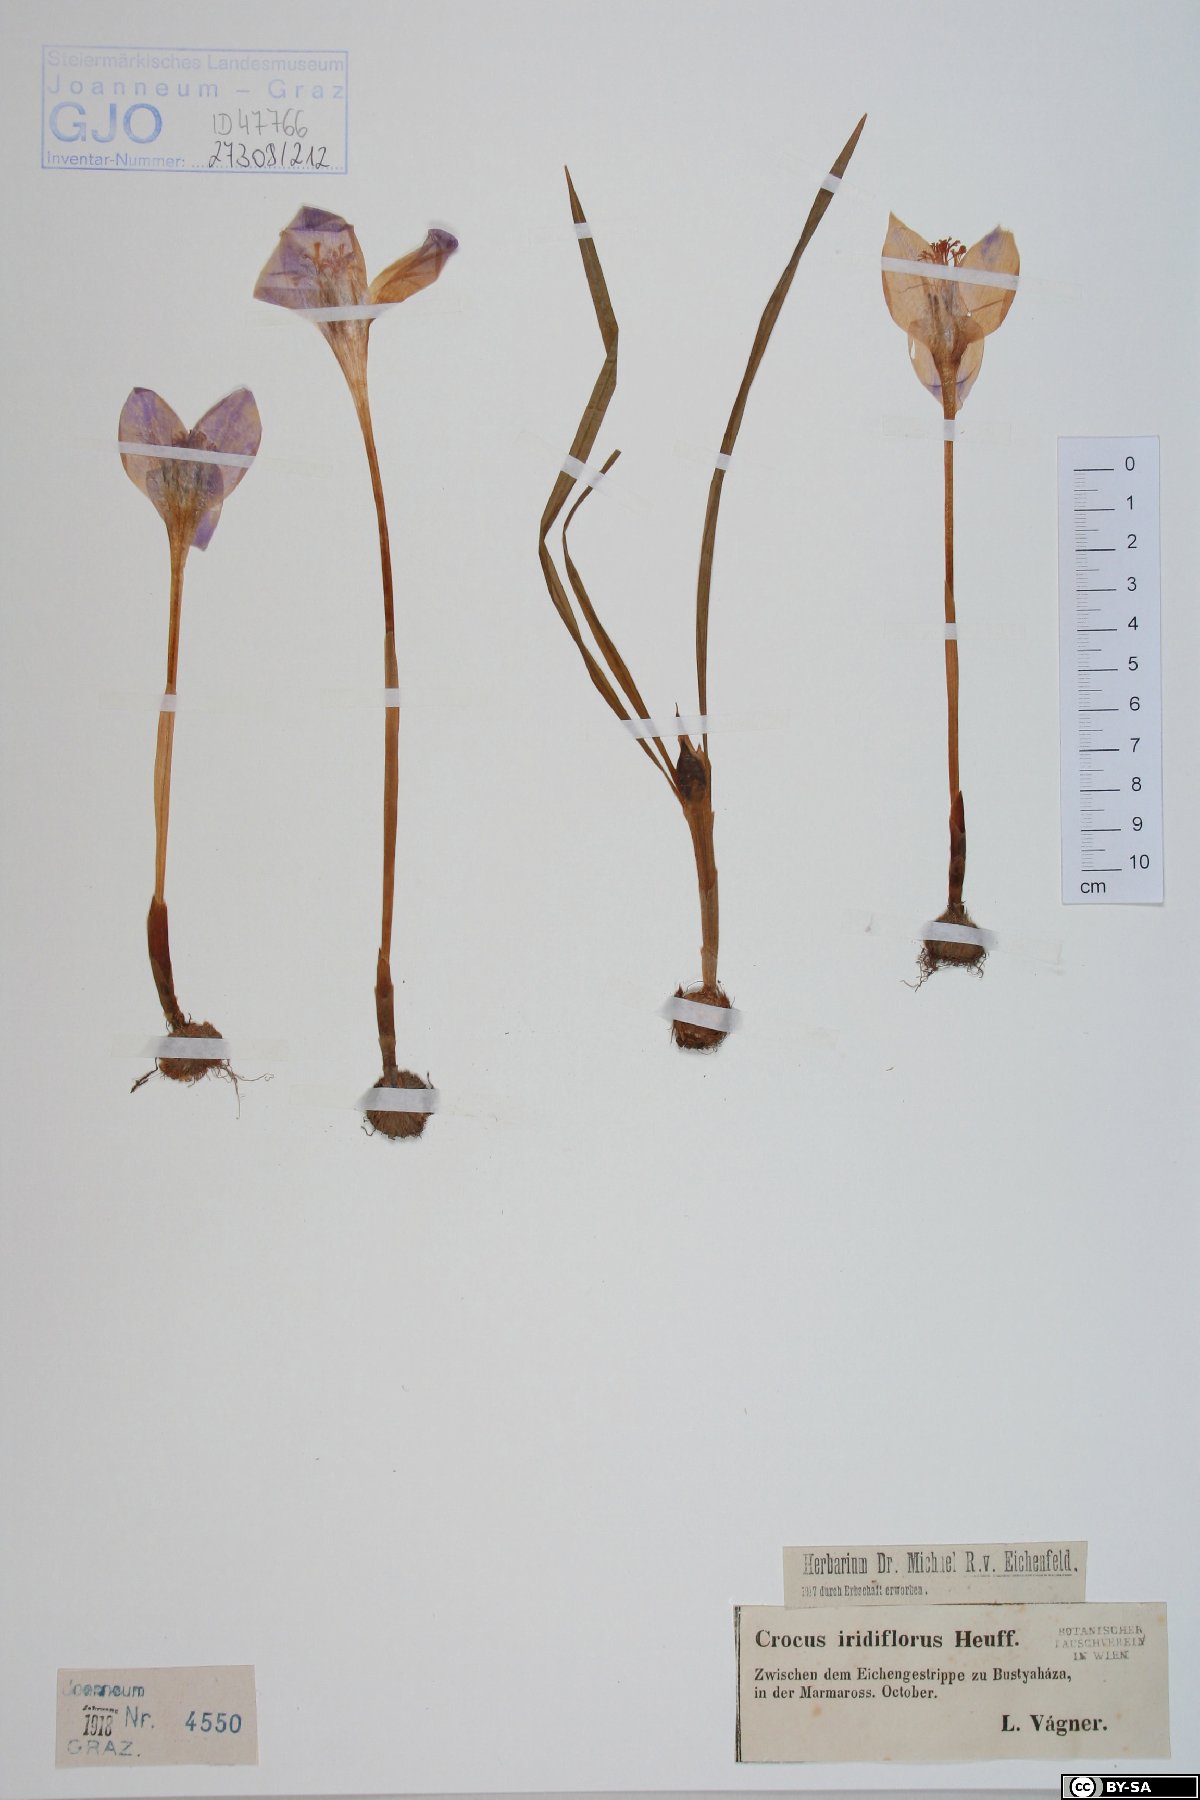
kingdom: Plantae
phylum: Tracheophyta
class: Liliopsida
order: Asparagales
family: Iridaceae
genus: Crocus
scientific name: Crocus banaticus
